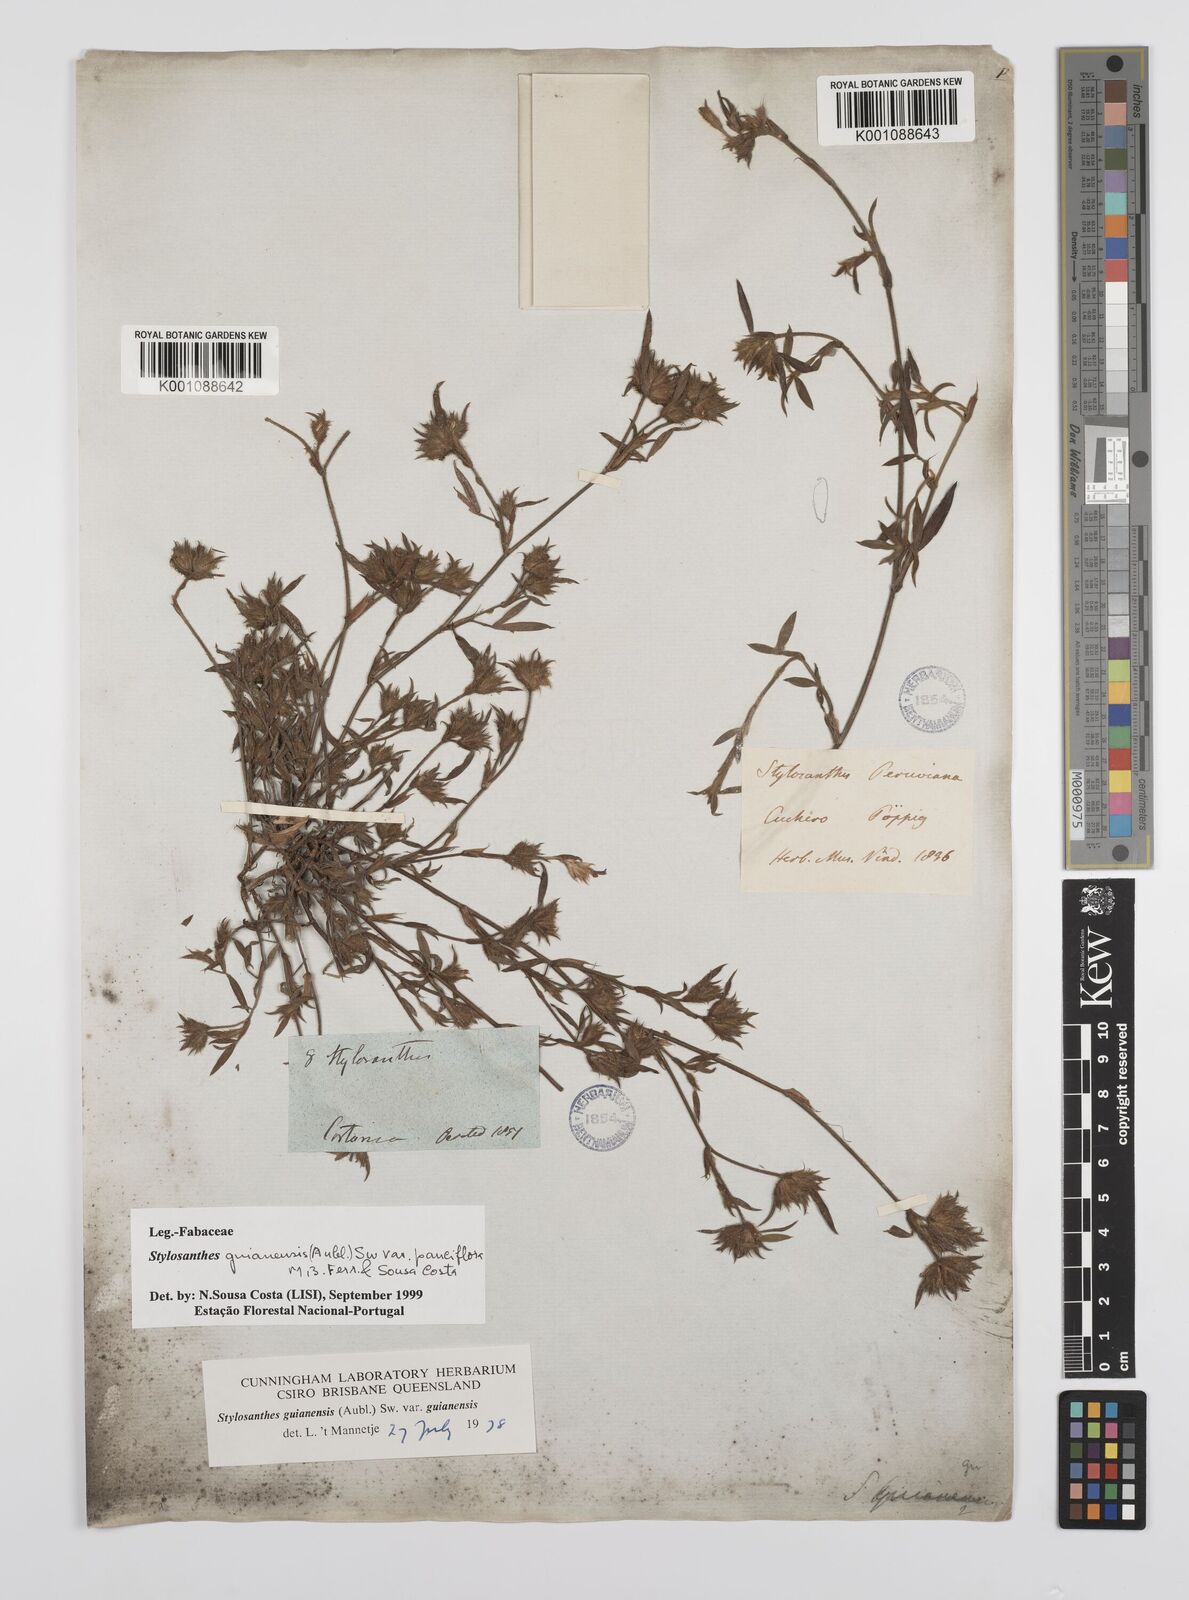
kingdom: Plantae
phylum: Tracheophyta
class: Magnoliopsida
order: Fabales
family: Fabaceae
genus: Stylosanthes
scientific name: Stylosanthes guianensis
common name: Pencil flower
